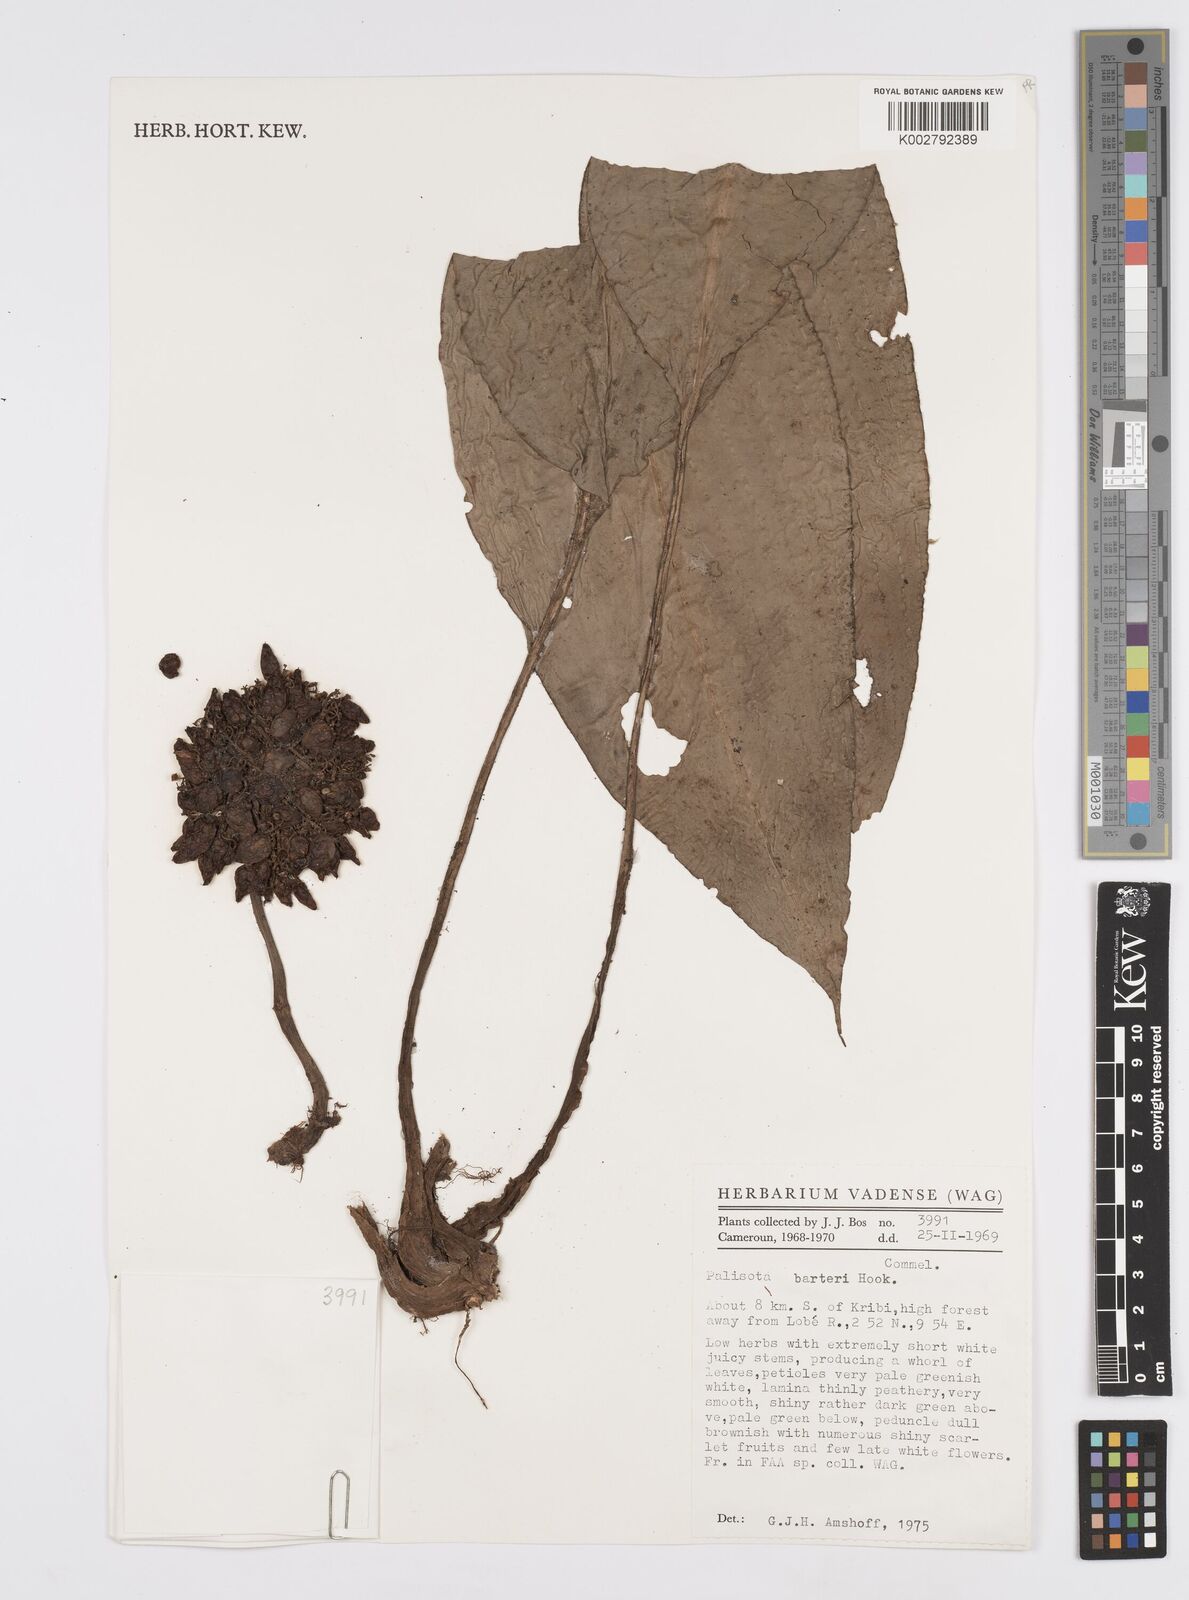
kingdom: Plantae
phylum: Tracheophyta
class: Liliopsida
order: Commelinales
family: Commelinaceae
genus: Palisota
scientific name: Palisota barteri
